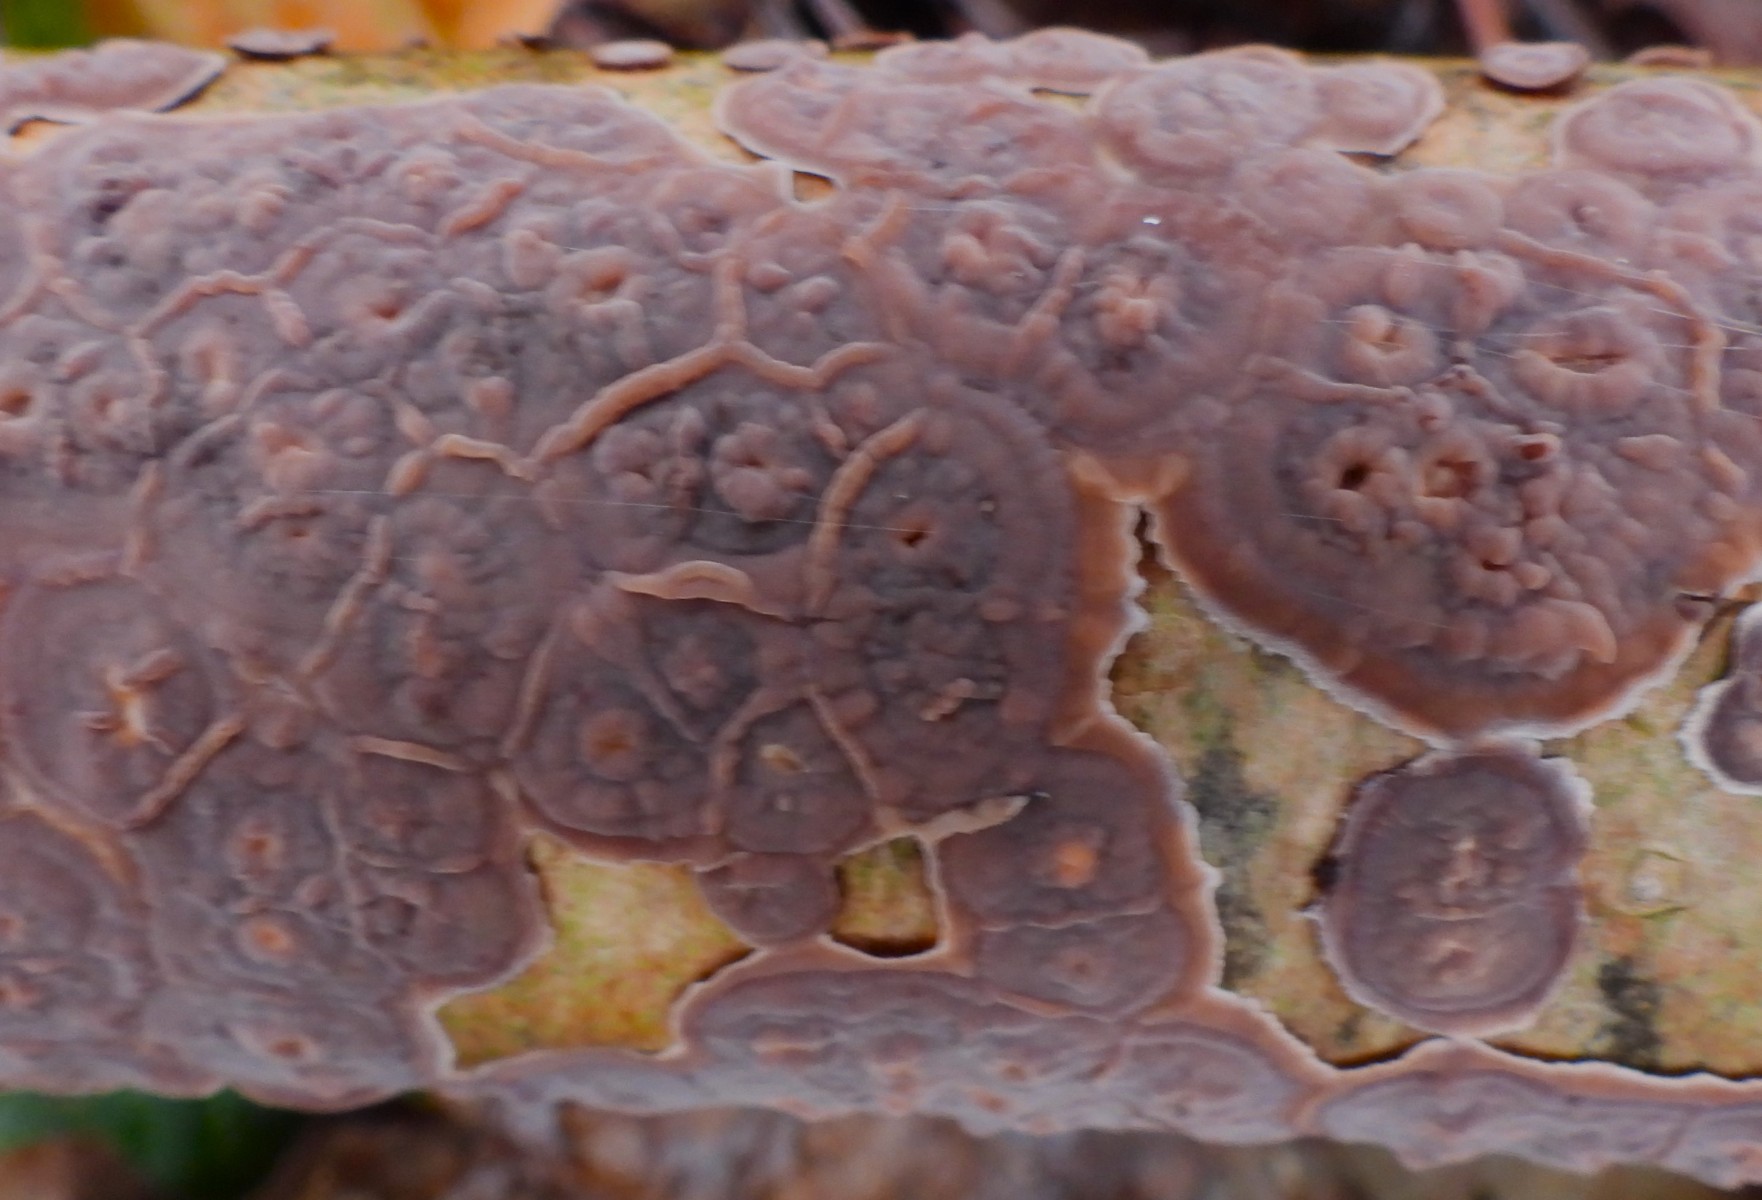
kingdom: Fungi
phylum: Basidiomycota
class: Agaricomycetes
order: Russulales
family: Peniophoraceae
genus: Peniophora
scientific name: Peniophora quercina
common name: ege-voksskind
